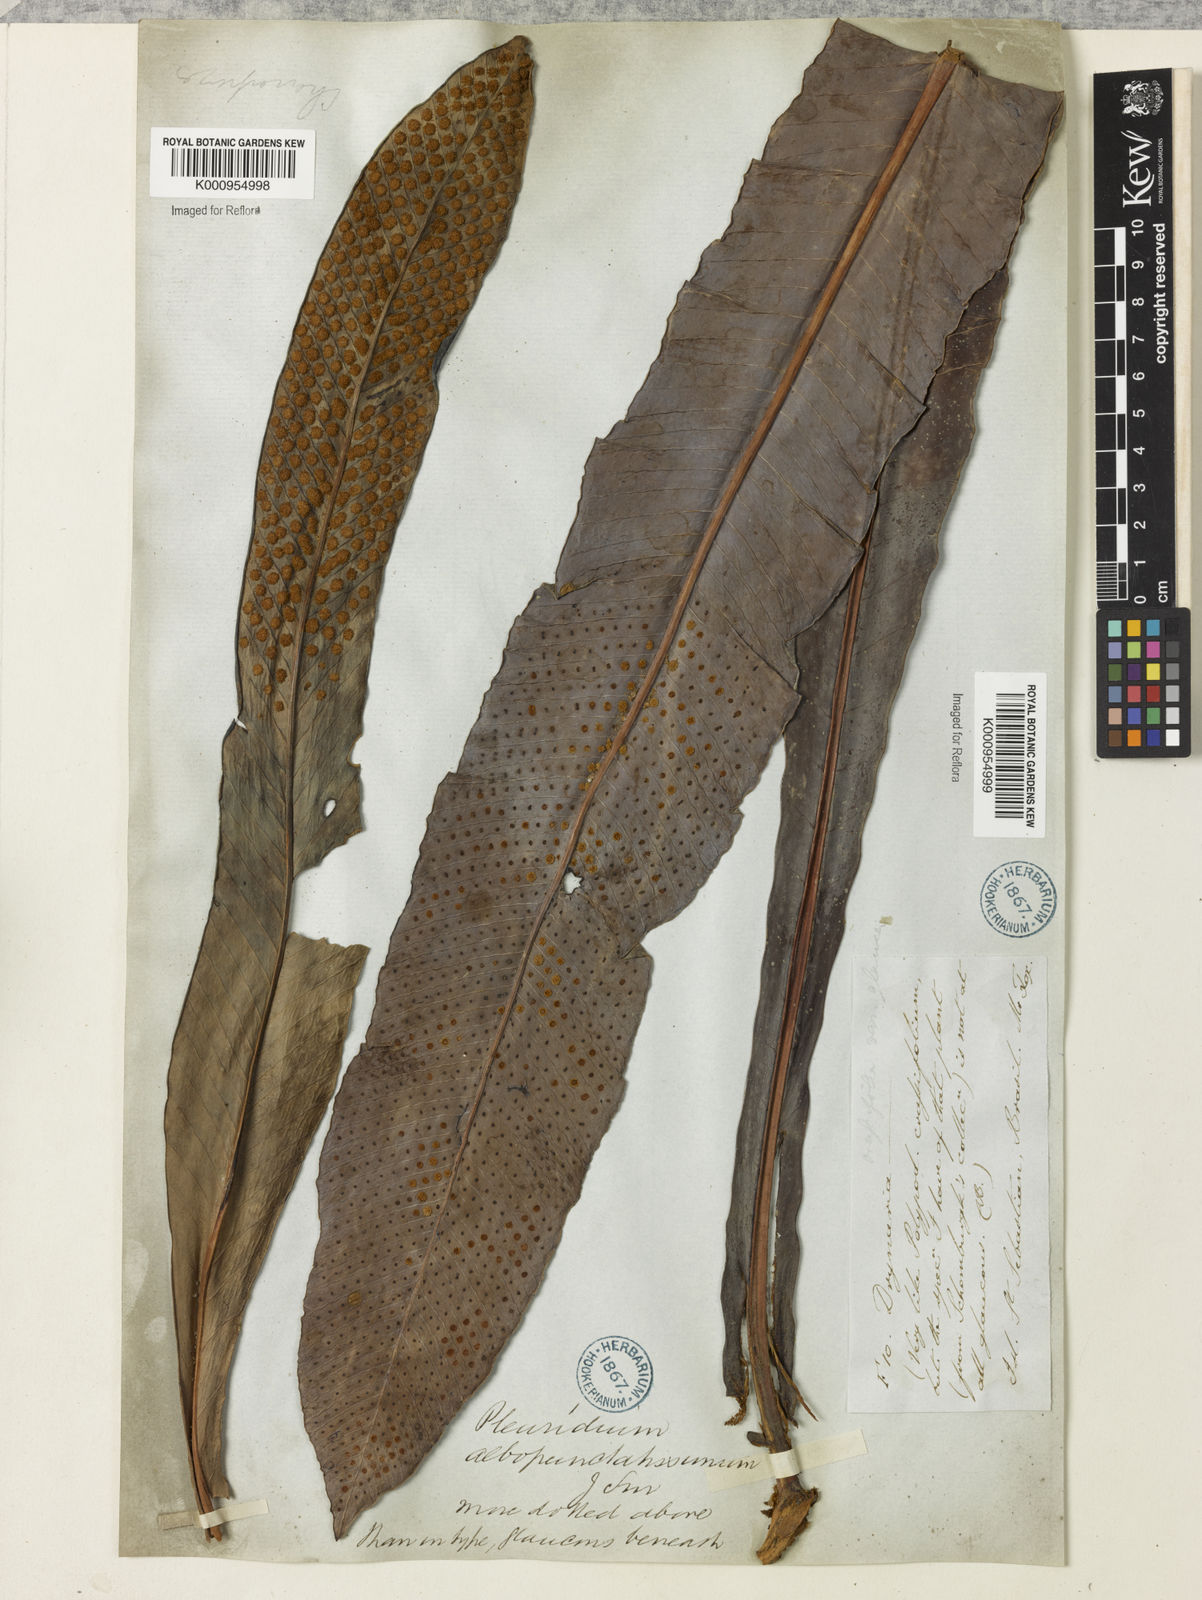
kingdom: Plantae
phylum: Tracheophyta
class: Polypodiopsida
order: Polypodiales
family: Polypodiaceae
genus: Niphidium
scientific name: Niphidium crassifolium
